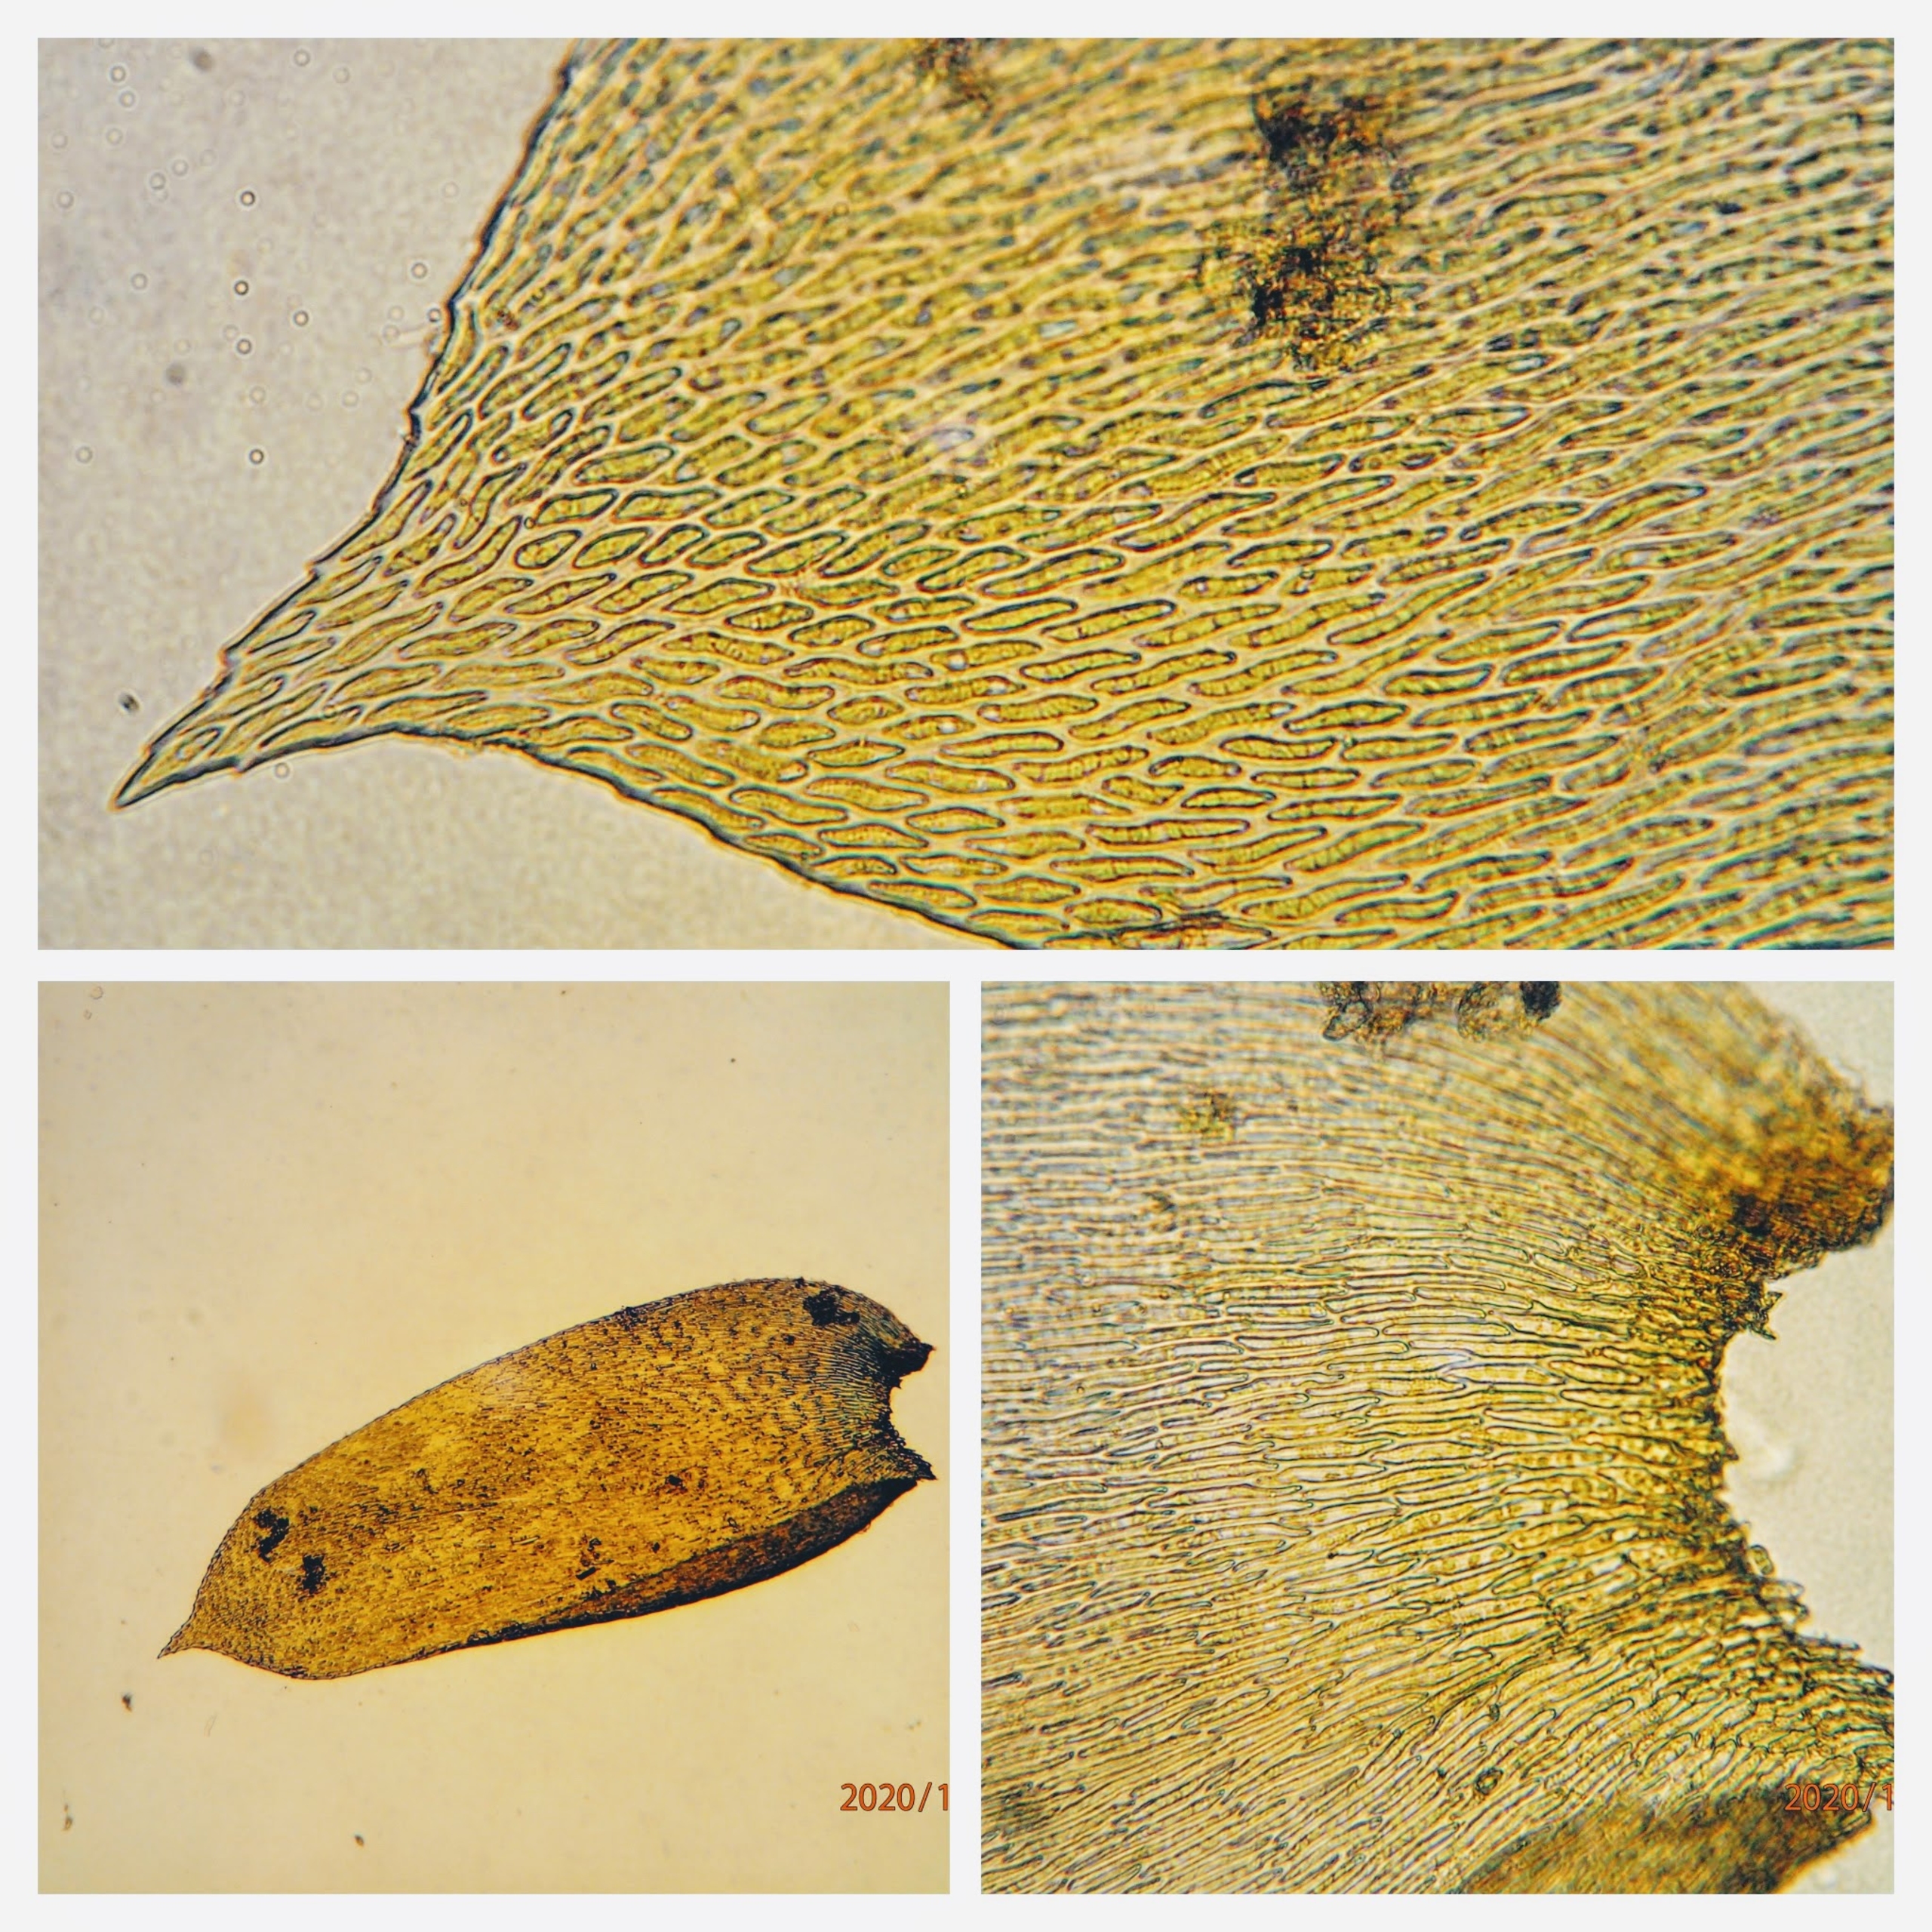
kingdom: Plantae
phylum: Bryophyta
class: Bryopsida
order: Hypnales
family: Neckeraceae
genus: Alleniella
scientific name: Alleniella complanata
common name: Almindelig fladmos
